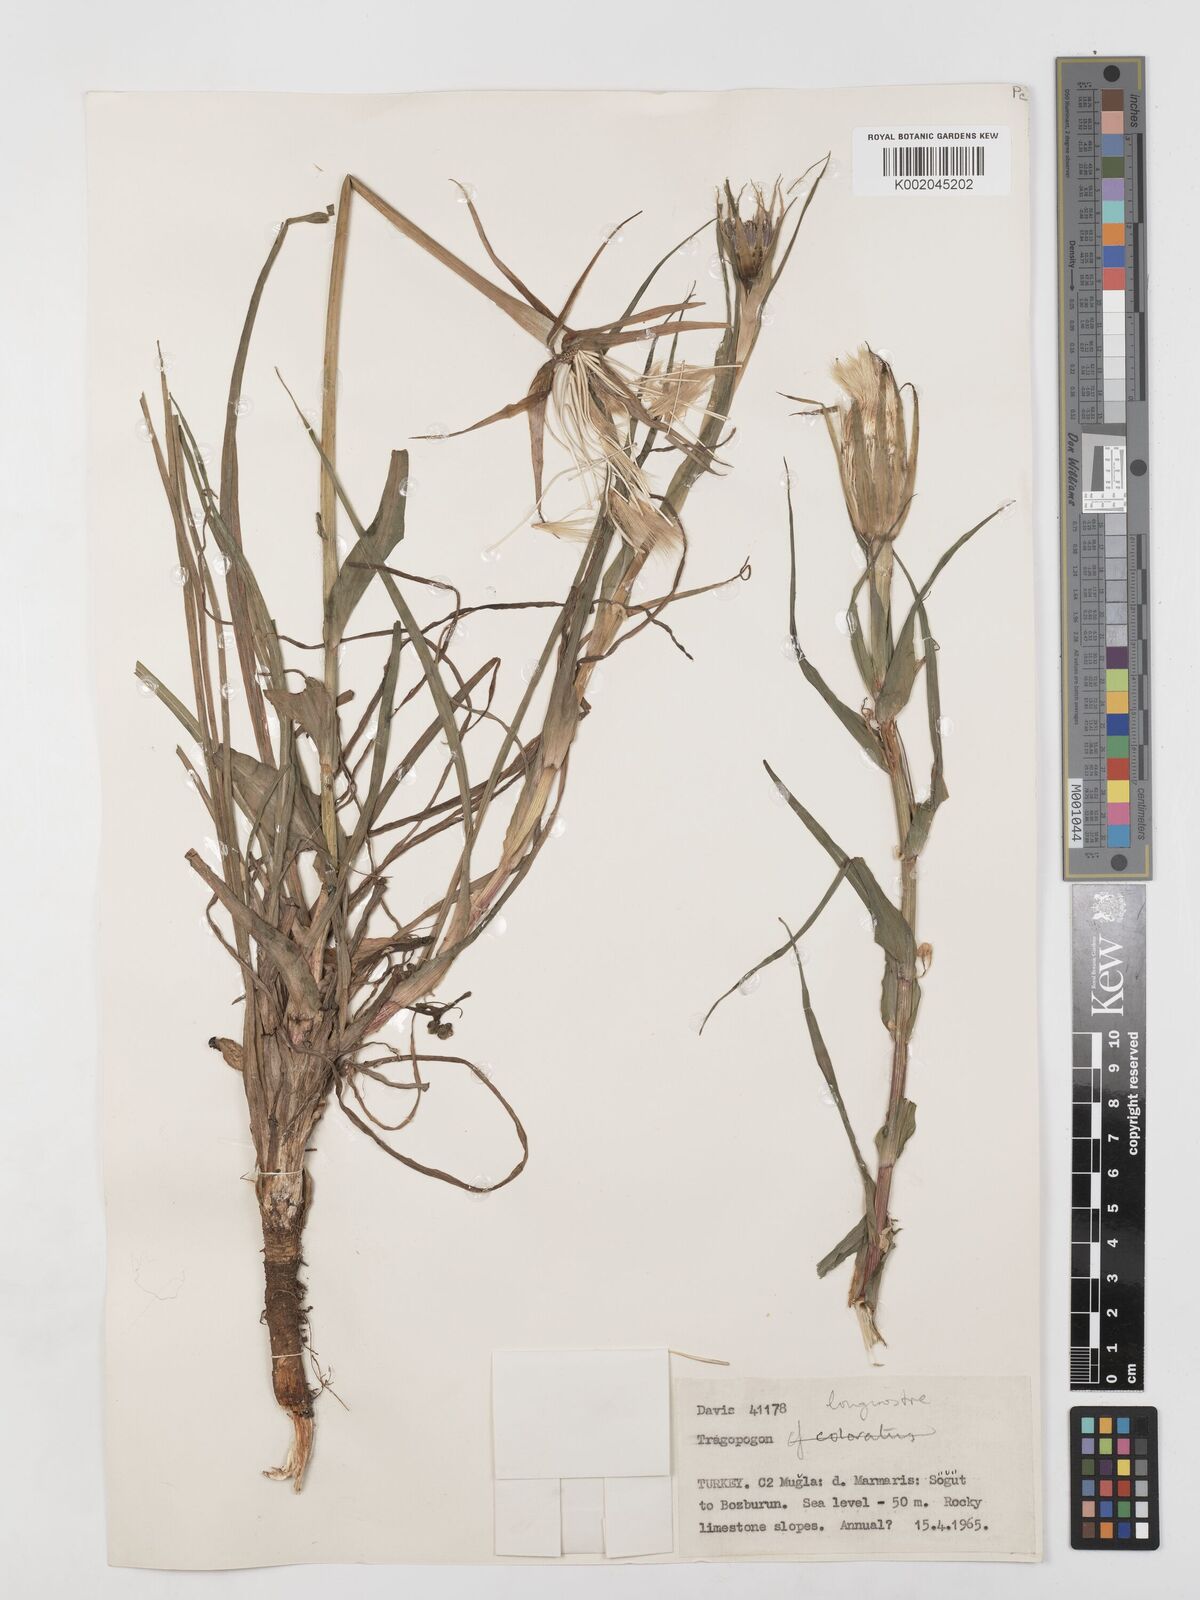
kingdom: Plantae
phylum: Tracheophyta
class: Magnoliopsida
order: Asterales
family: Asteraceae
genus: Tragopogon
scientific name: Tragopogon coelesyriacus
